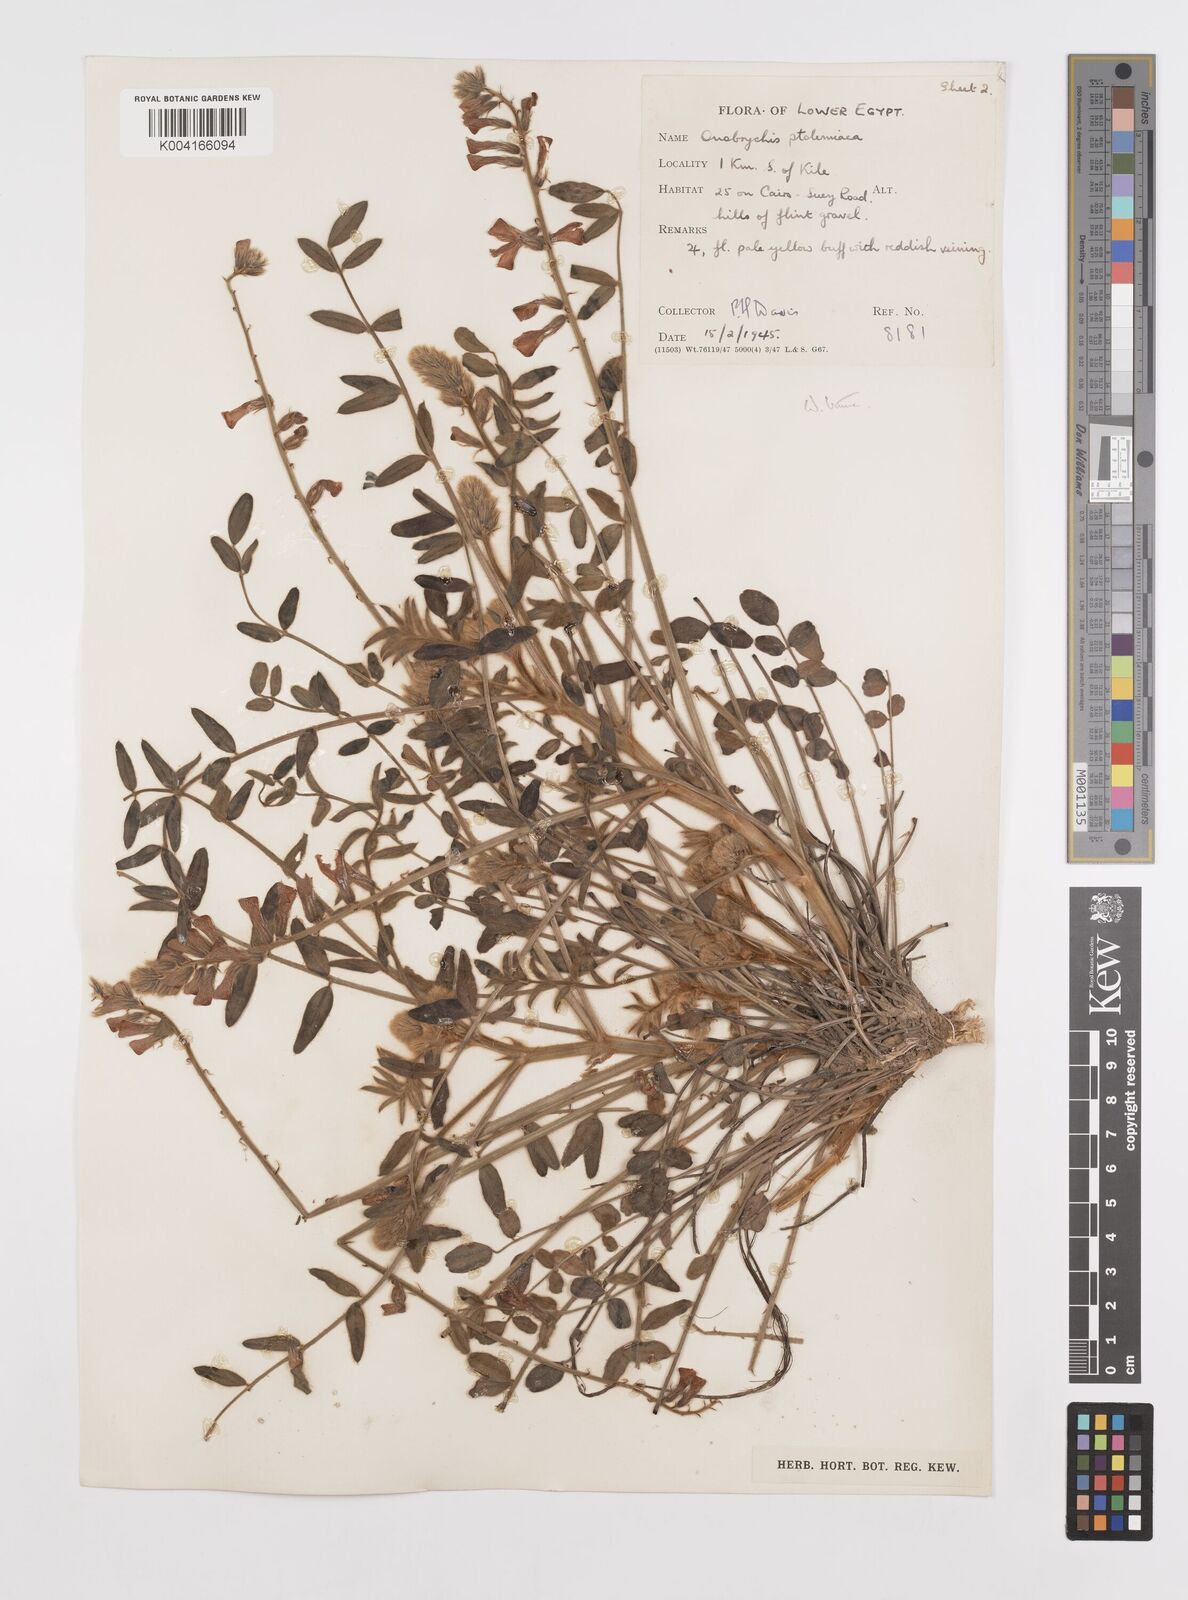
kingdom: Plantae
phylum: Tracheophyta
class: Magnoliopsida
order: Fabales
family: Fabaceae
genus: Onobrychis
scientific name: Onobrychis ptolemaica
